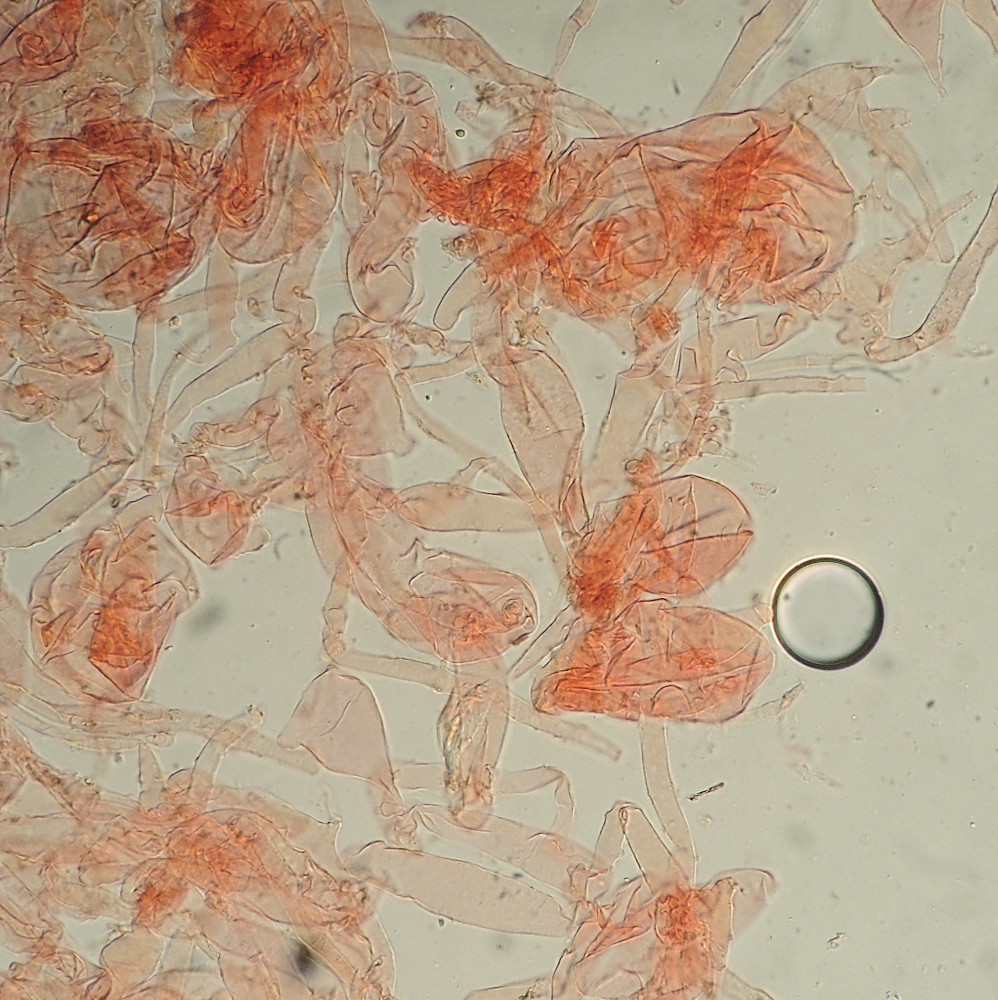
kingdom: Fungi
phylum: Basidiomycota
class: Agaricomycetes
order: Agaricales
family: Psathyrellaceae
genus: Coprinopsis
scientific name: Coprinopsis
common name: blækhat
